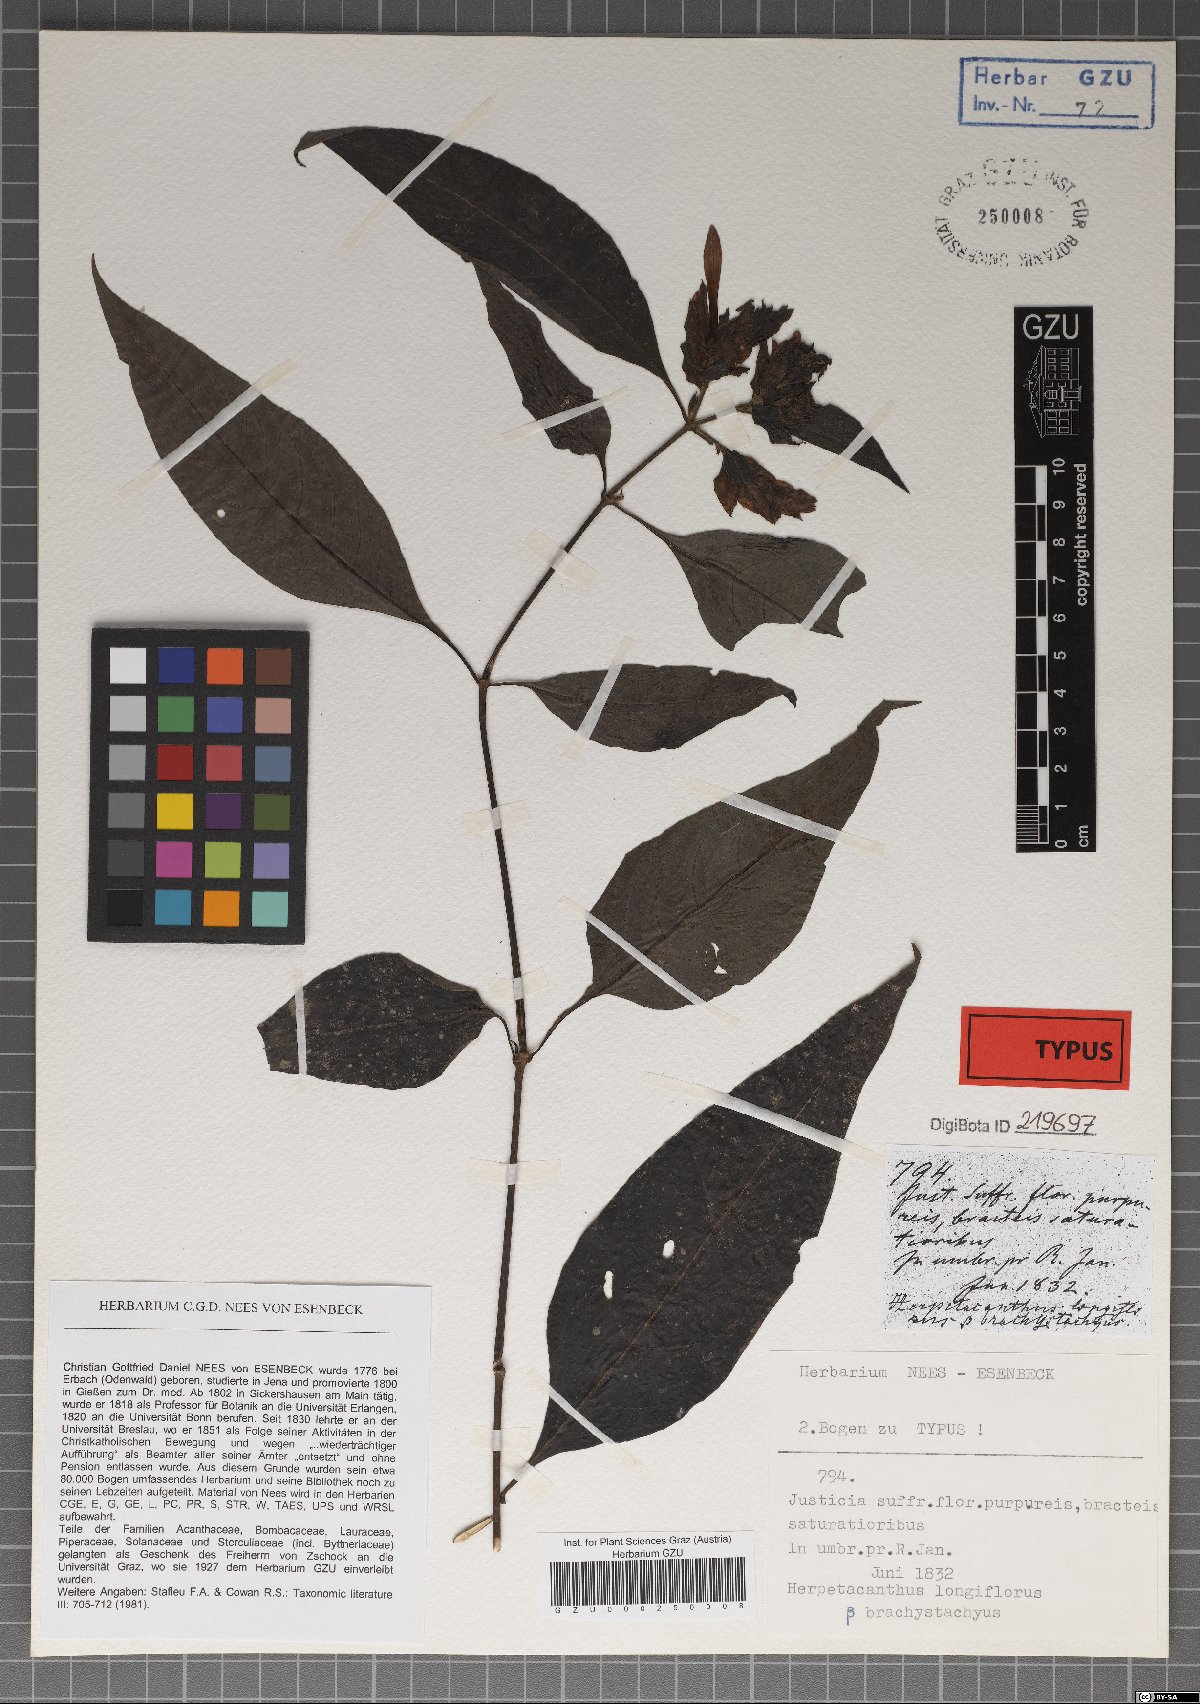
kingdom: Plantae
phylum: Tracheophyta
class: Magnoliopsida
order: Lamiales
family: Acanthaceae
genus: Herpetacanthus
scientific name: Herpetacanthus longiflorus
